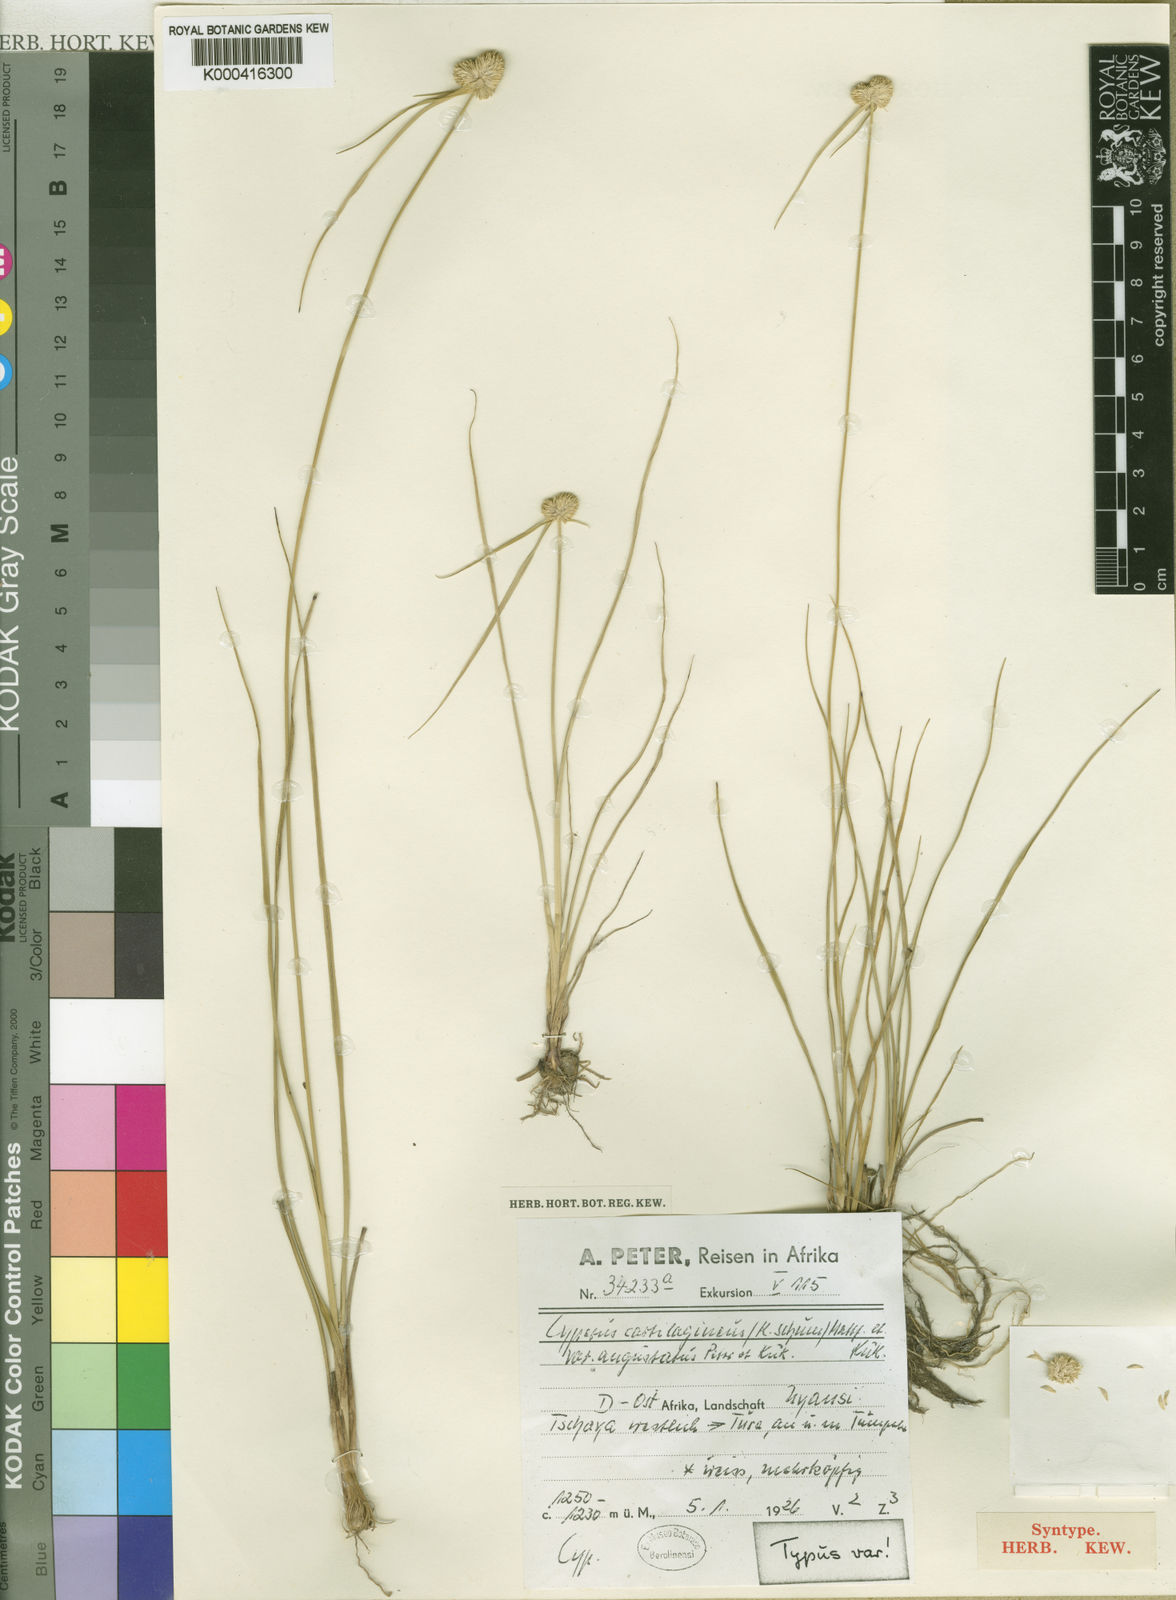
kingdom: Plantae
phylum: Tracheophyta
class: Liliopsida
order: Poales
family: Cyperaceae
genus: Cyperus
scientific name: Cyperus comosipes
